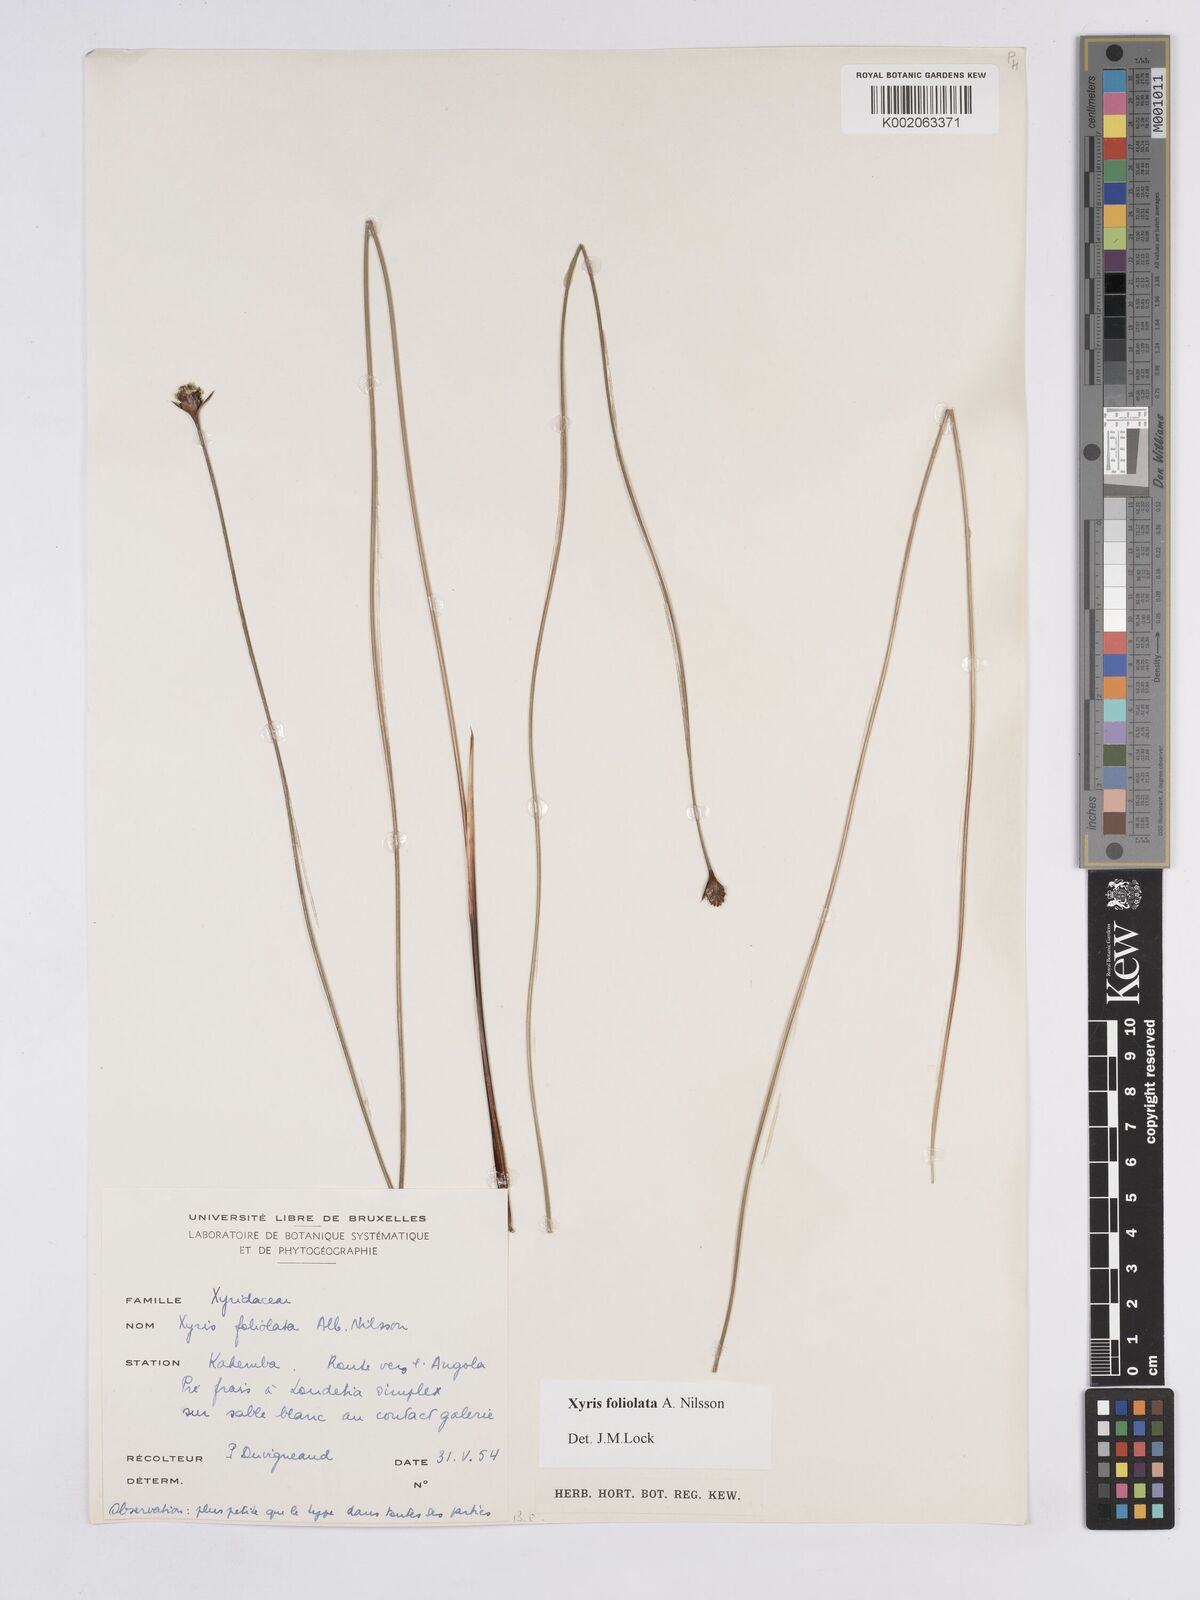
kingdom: Plantae
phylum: Tracheophyta
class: Liliopsida
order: Poales
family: Xyridaceae
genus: Xyris
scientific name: Xyris foliolata
